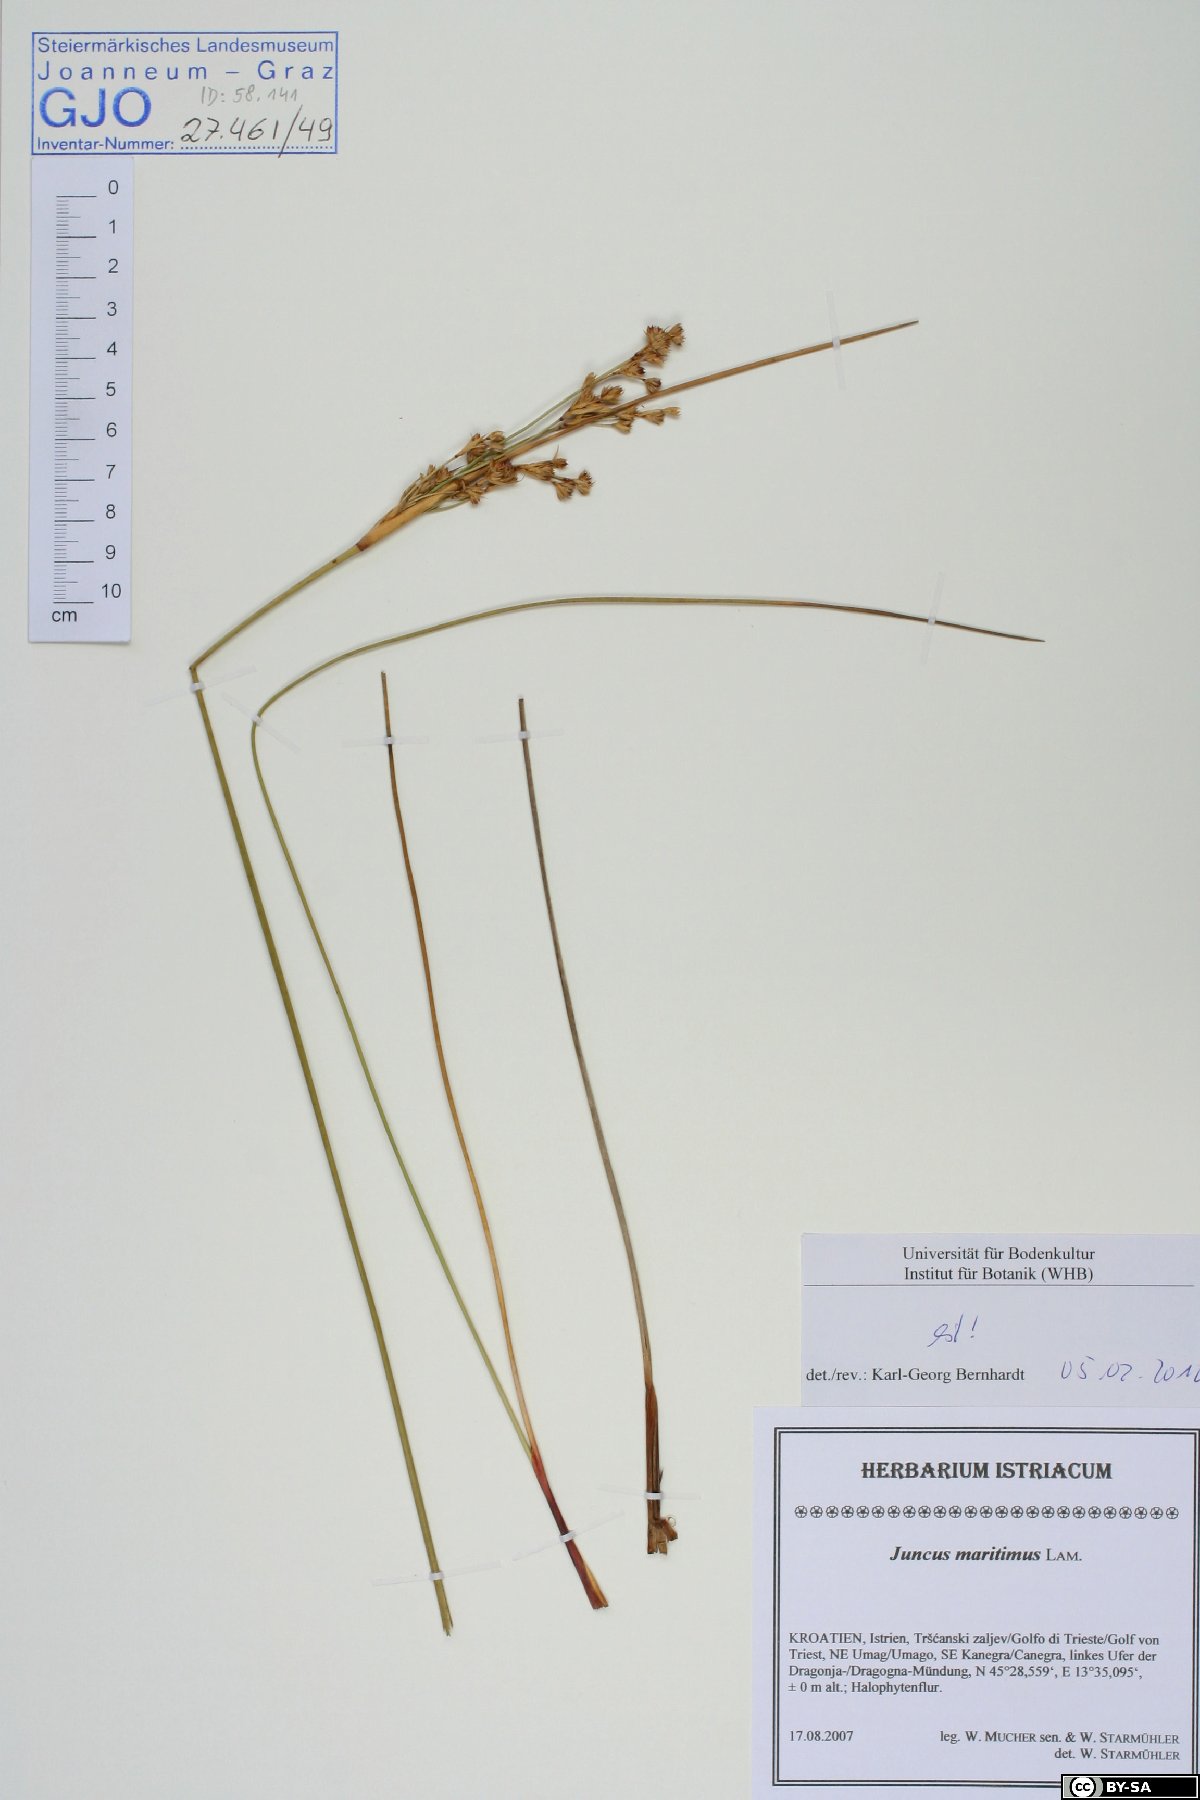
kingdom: Plantae
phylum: Tracheophyta
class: Liliopsida
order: Poales
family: Juncaceae
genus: Juncus
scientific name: Juncus maritimus
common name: Sea rush
